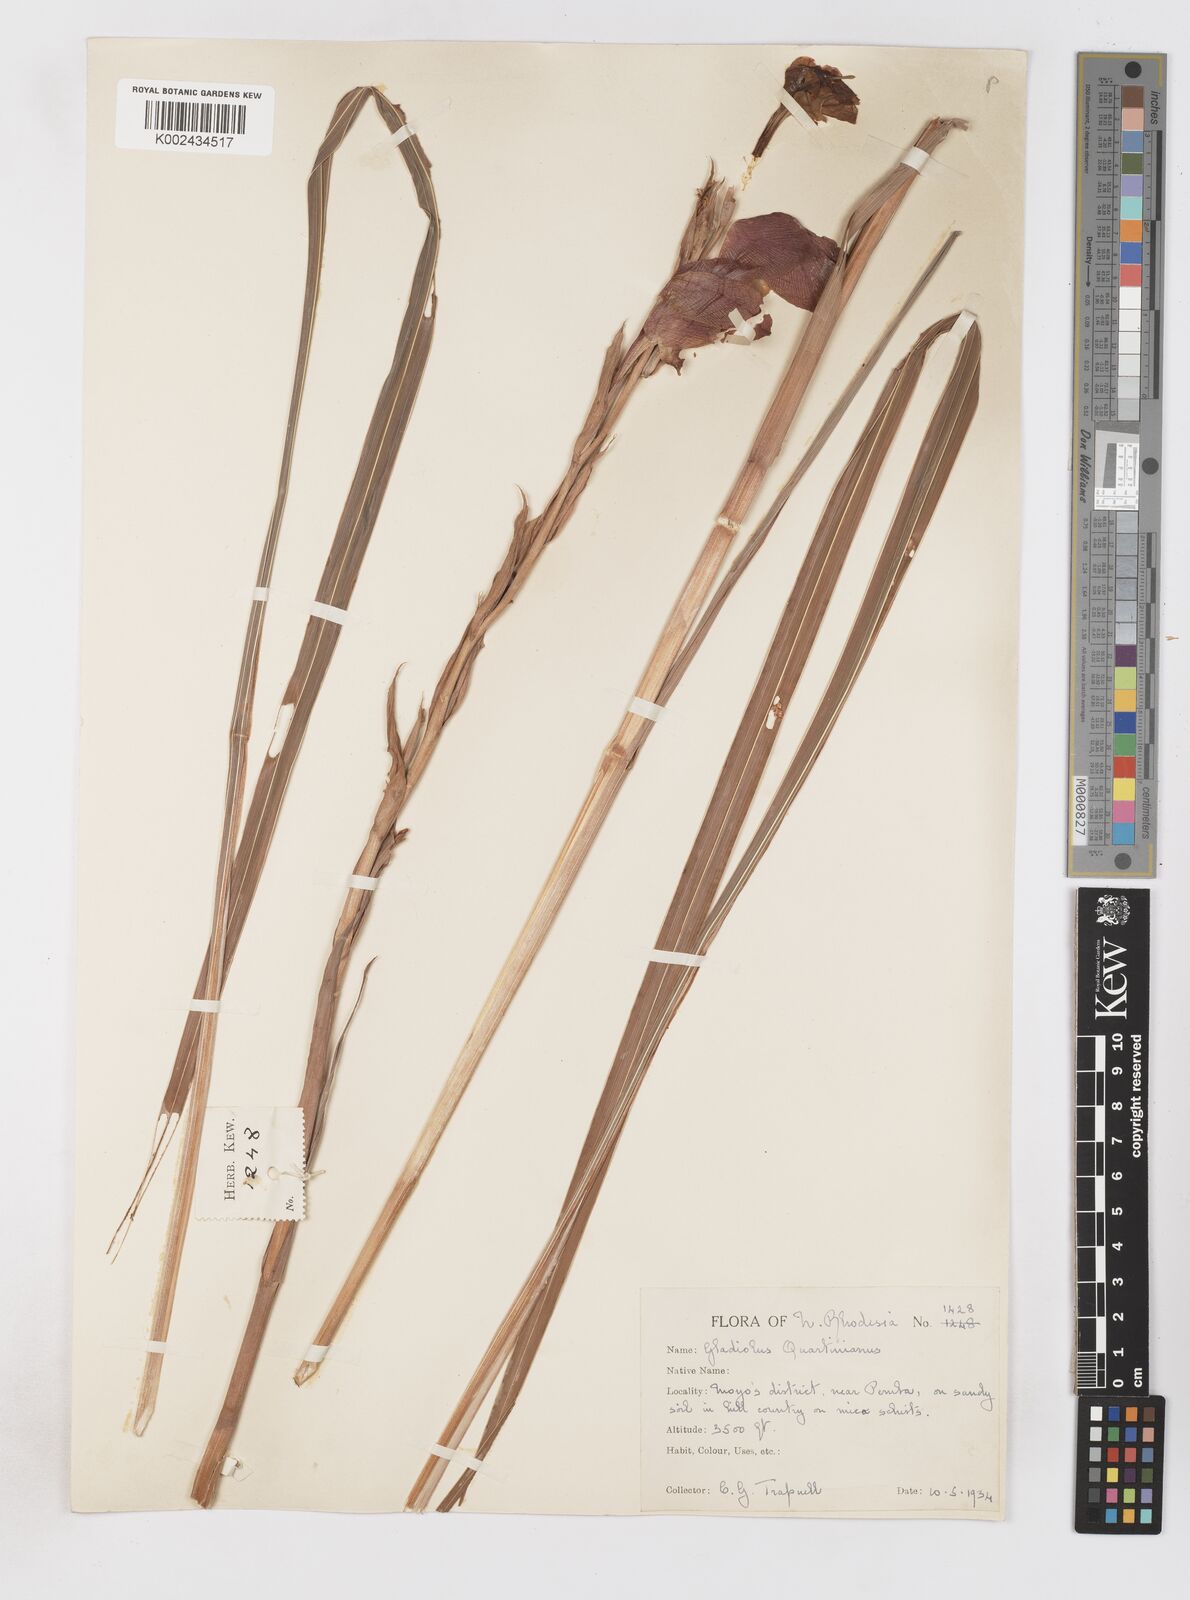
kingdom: Plantae
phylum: Tracheophyta
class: Liliopsida
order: Asparagales
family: Iridaceae
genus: Gladiolus
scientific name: Gladiolus dalenii
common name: Cornflag
